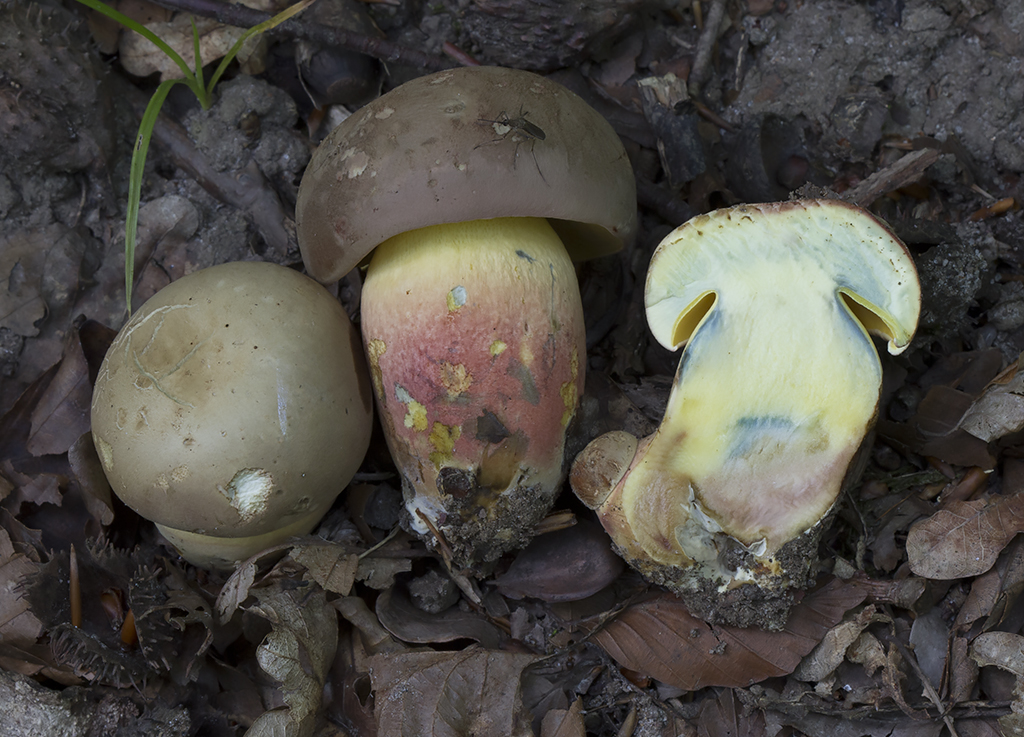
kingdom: Fungi
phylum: Basidiomycota
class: Agaricomycetes
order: Boletales
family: Boletaceae
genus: Butyriboletus
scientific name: Butyriboletus fuscoroseus
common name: brunrosa rørhat
